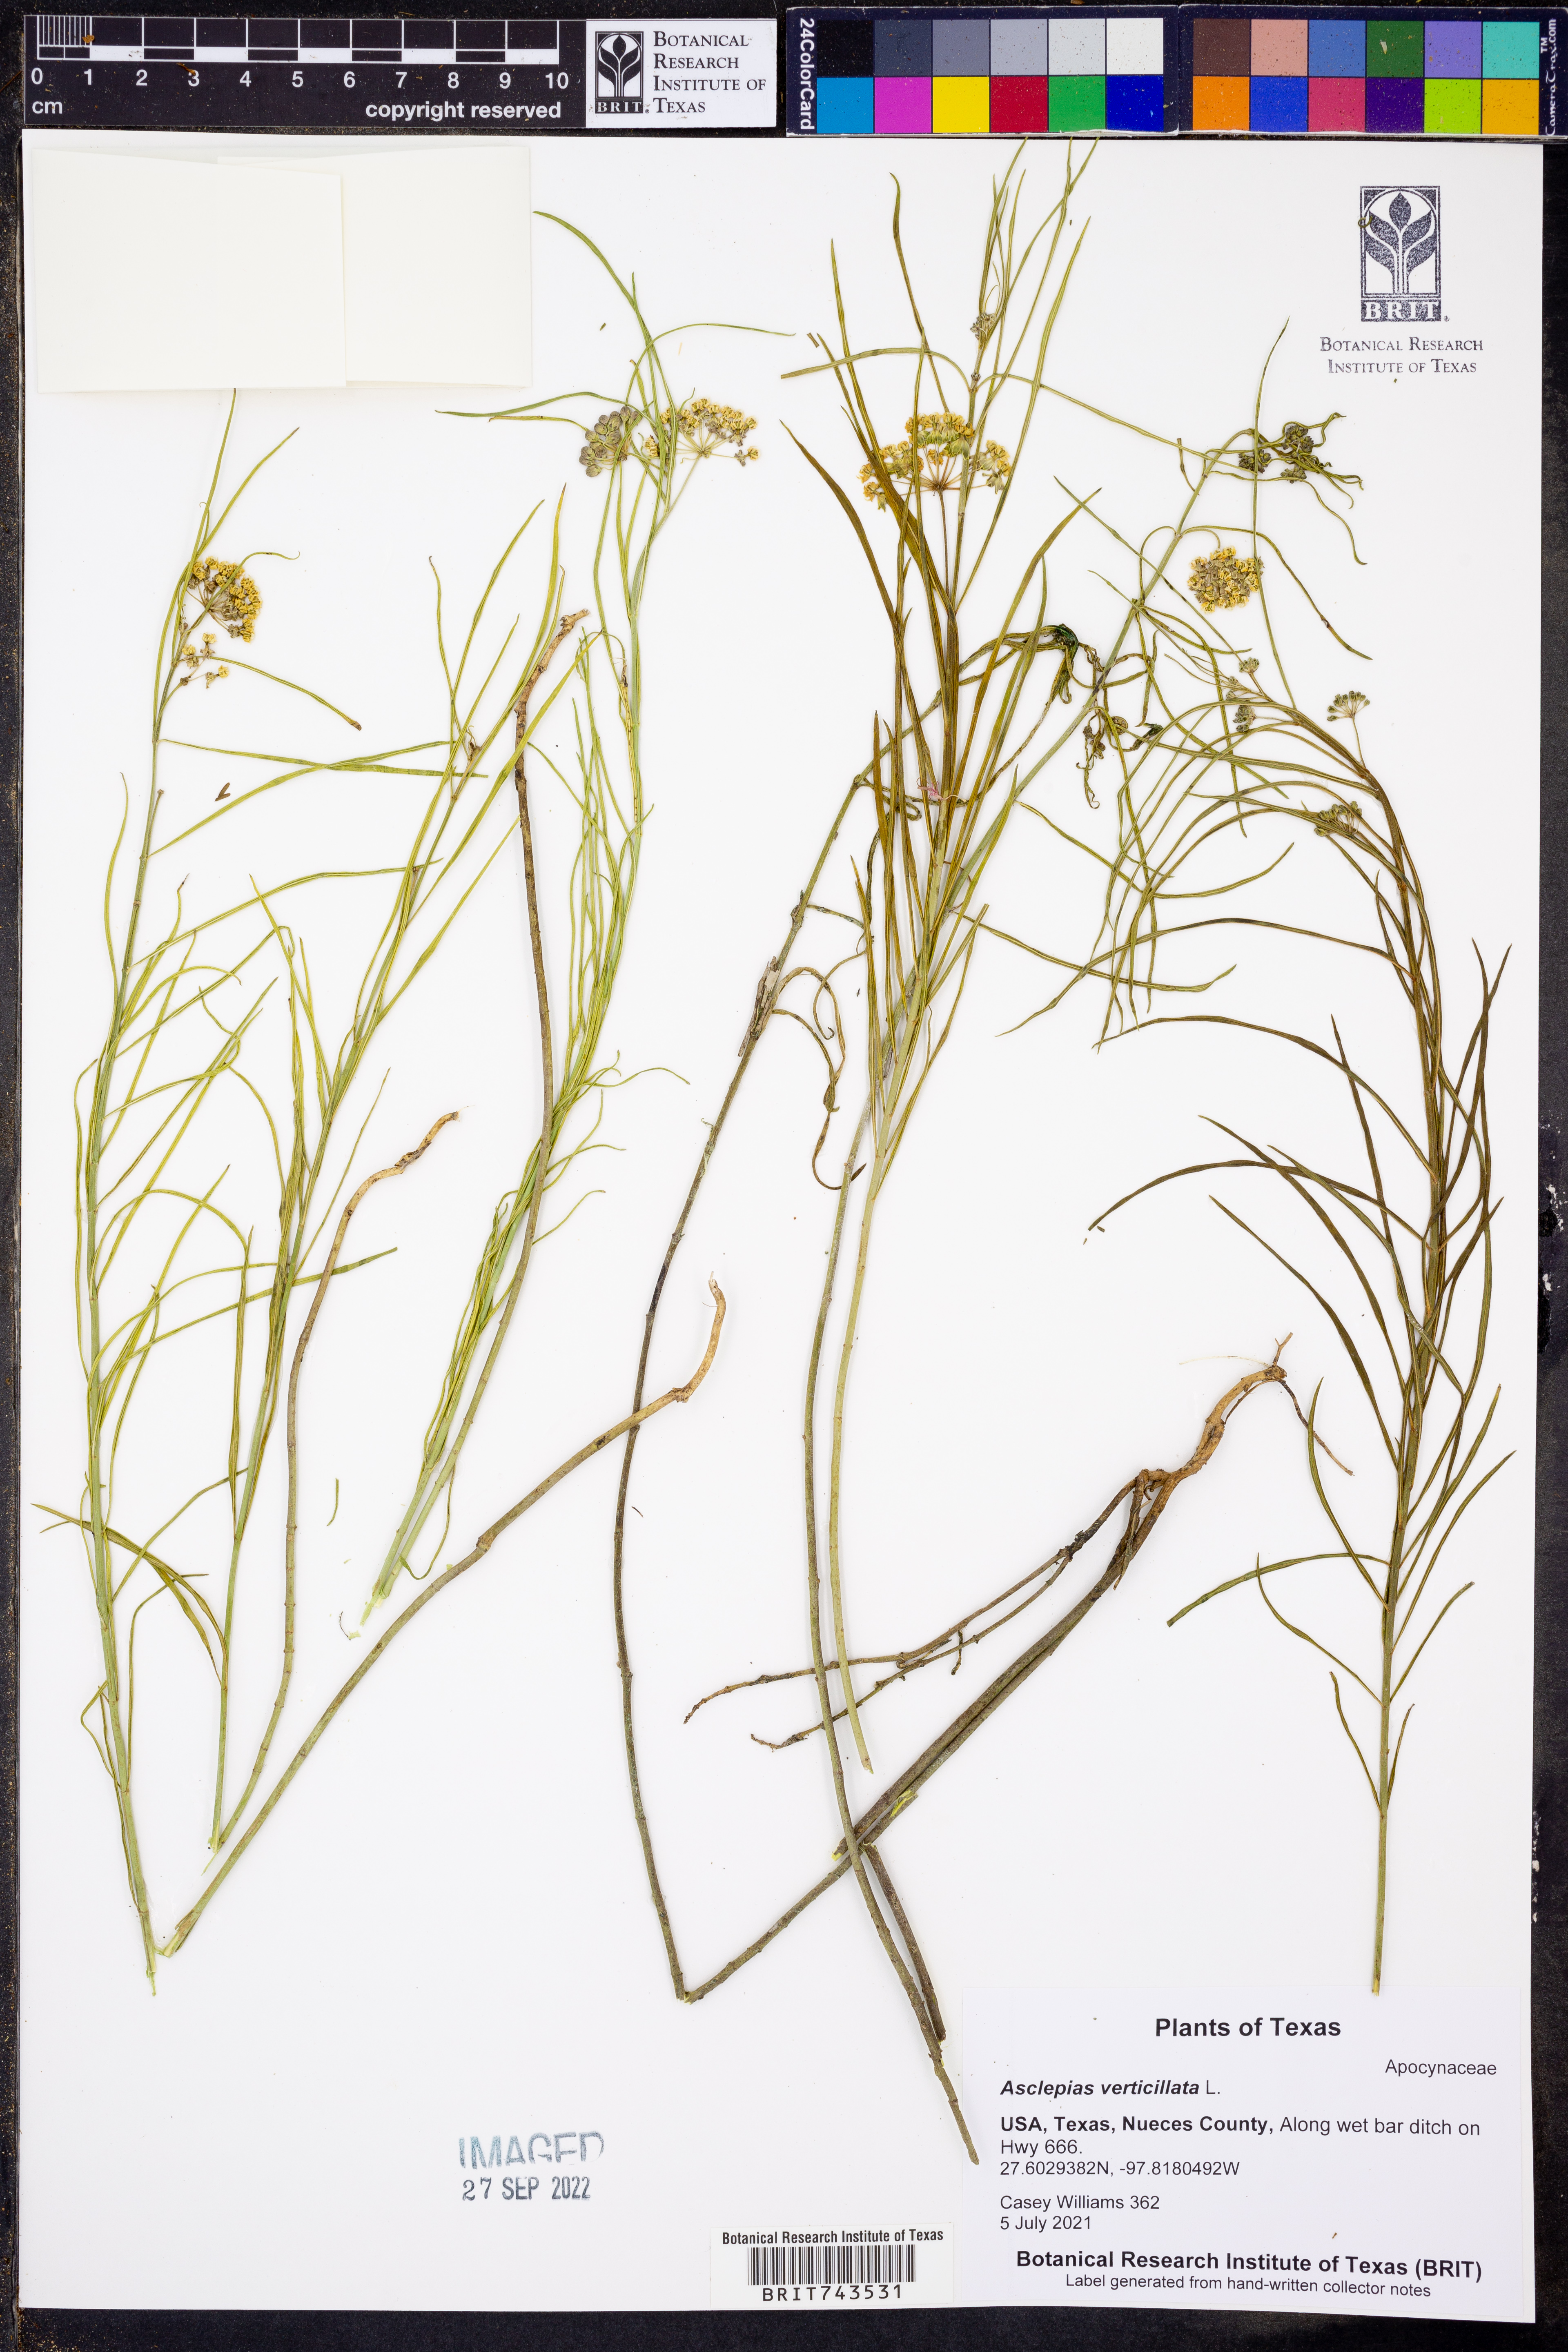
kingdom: Plantae
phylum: Tracheophyta
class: Magnoliopsida
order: Gentianales
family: Apocynaceae
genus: Asclepias
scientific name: Asclepias verticillata
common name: Eastern whorled milkweed
